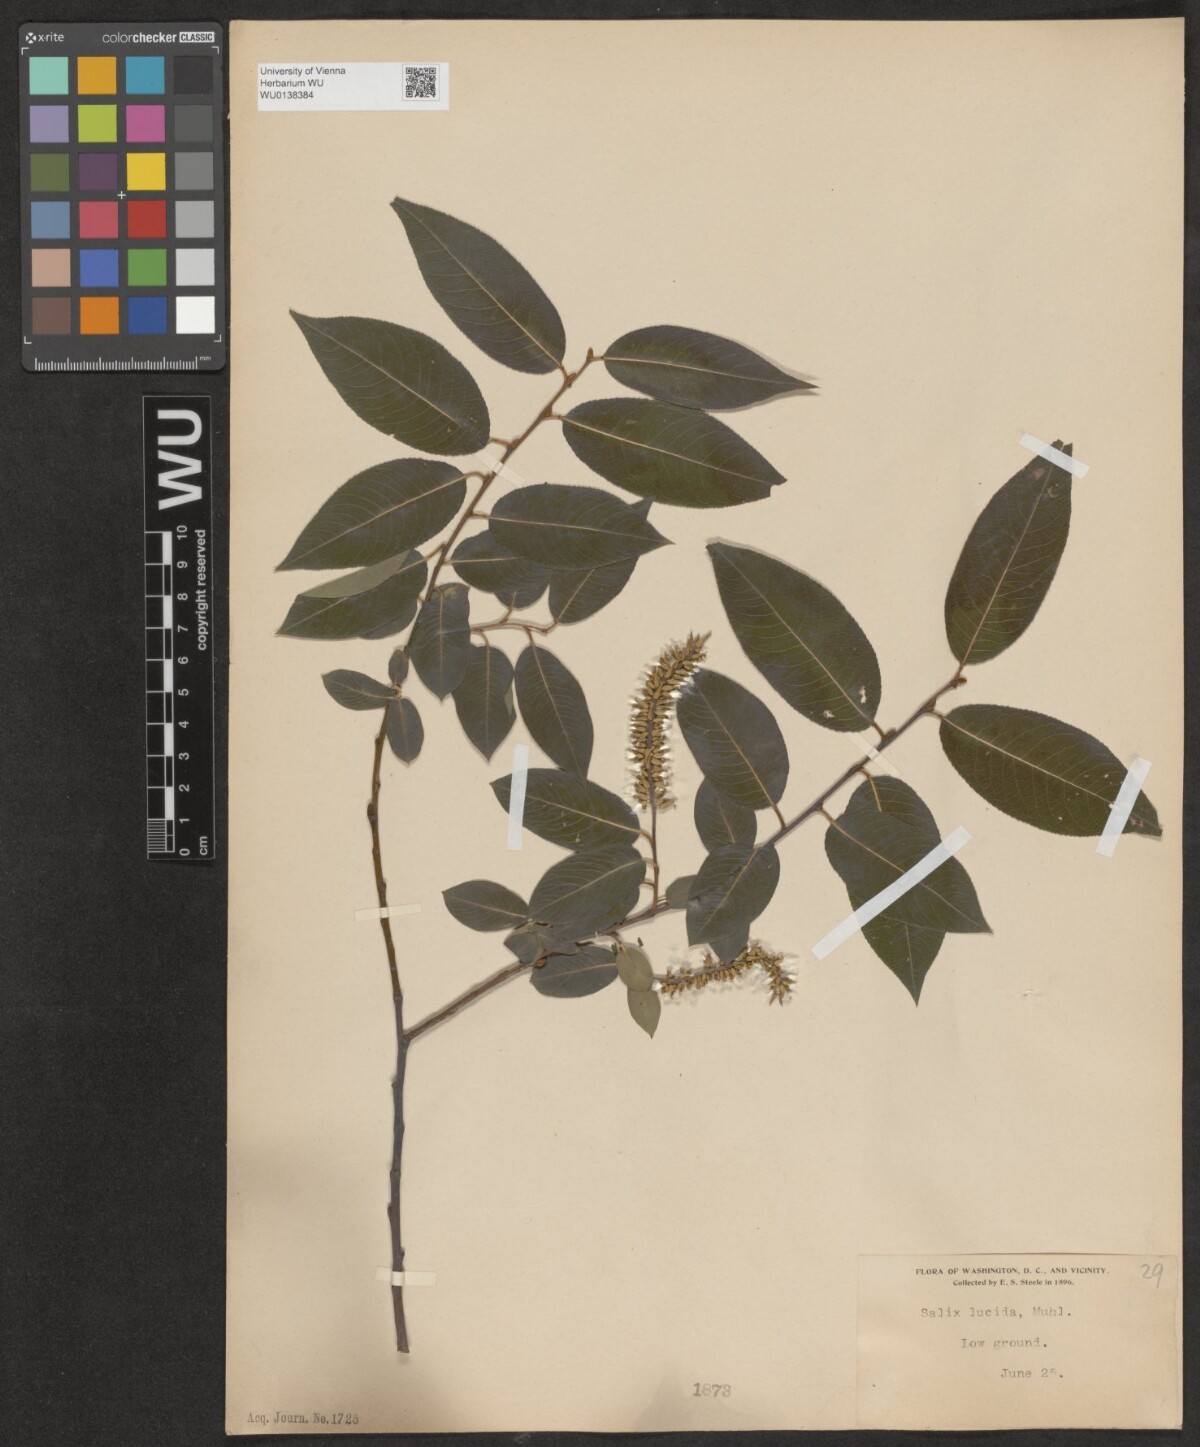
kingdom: Plantae
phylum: Tracheophyta
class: Magnoliopsida
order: Malpighiales
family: Salicaceae
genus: Salix
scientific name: Salix lucida
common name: Shining willow
